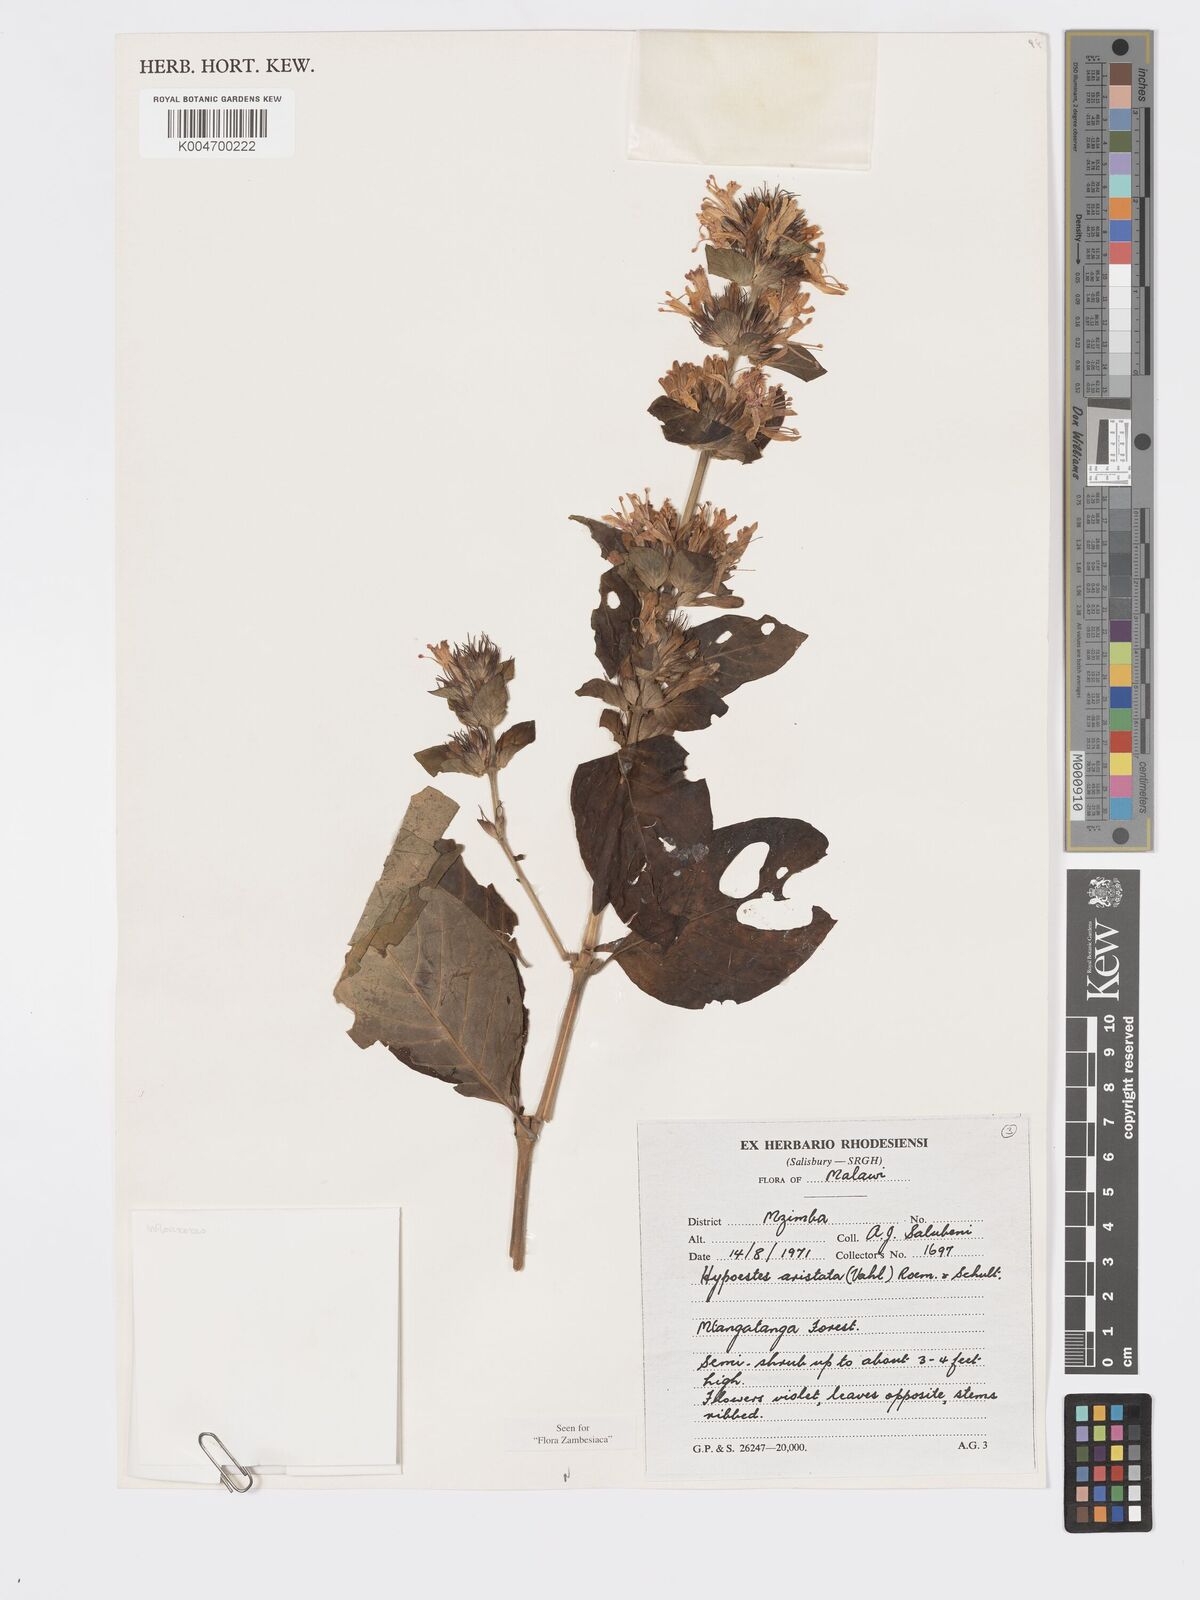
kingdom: Plantae
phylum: Tracheophyta
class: Magnoliopsida
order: Lamiales
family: Acanthaceae
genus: Hypoestes
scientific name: Hypoestes aristata
